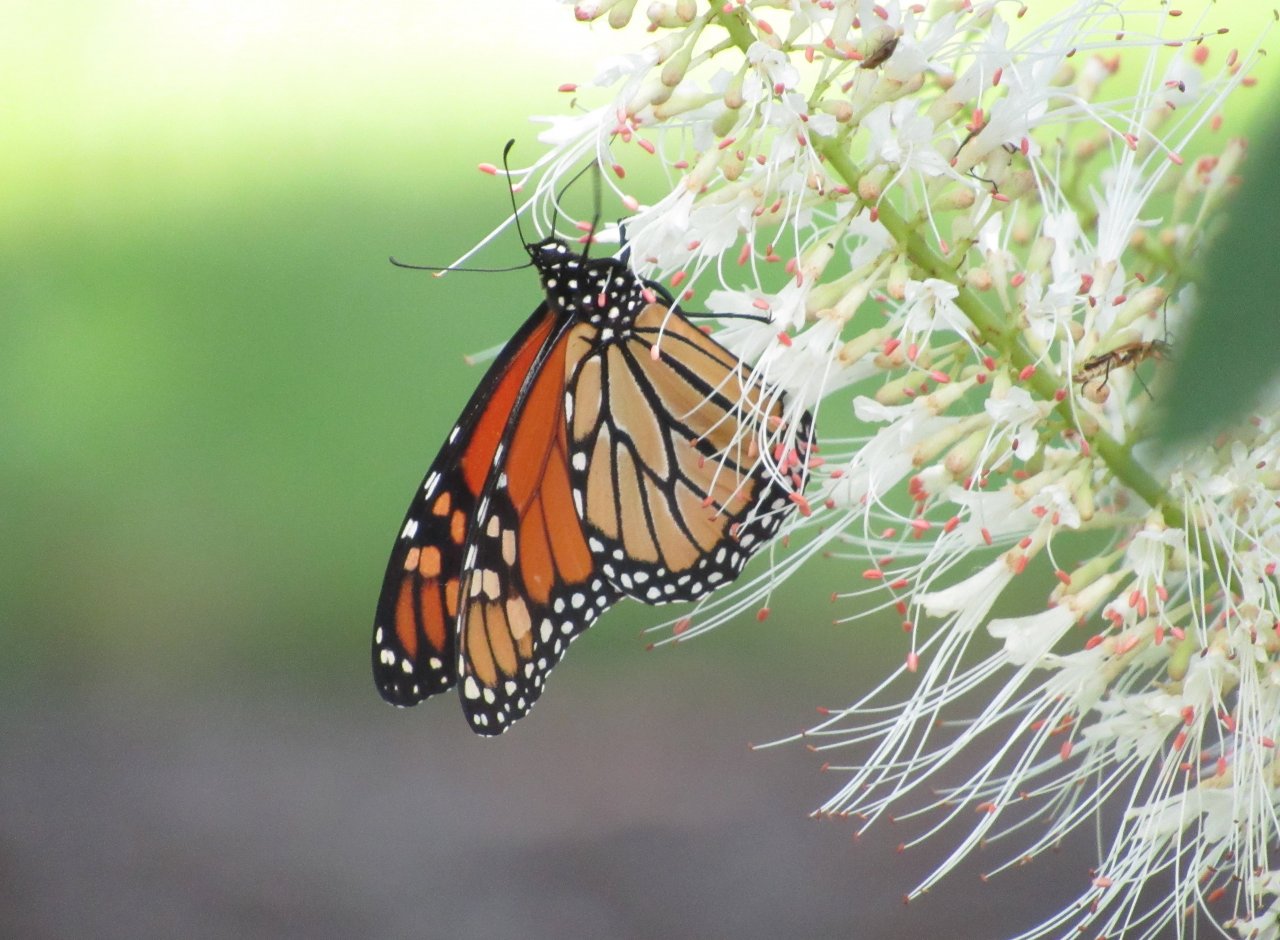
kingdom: Animalia
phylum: Arthropoda
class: Insecta
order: Lepidoptera
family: Nymphalidae
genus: Danaus
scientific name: Danaus plexippus
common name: Monarch
